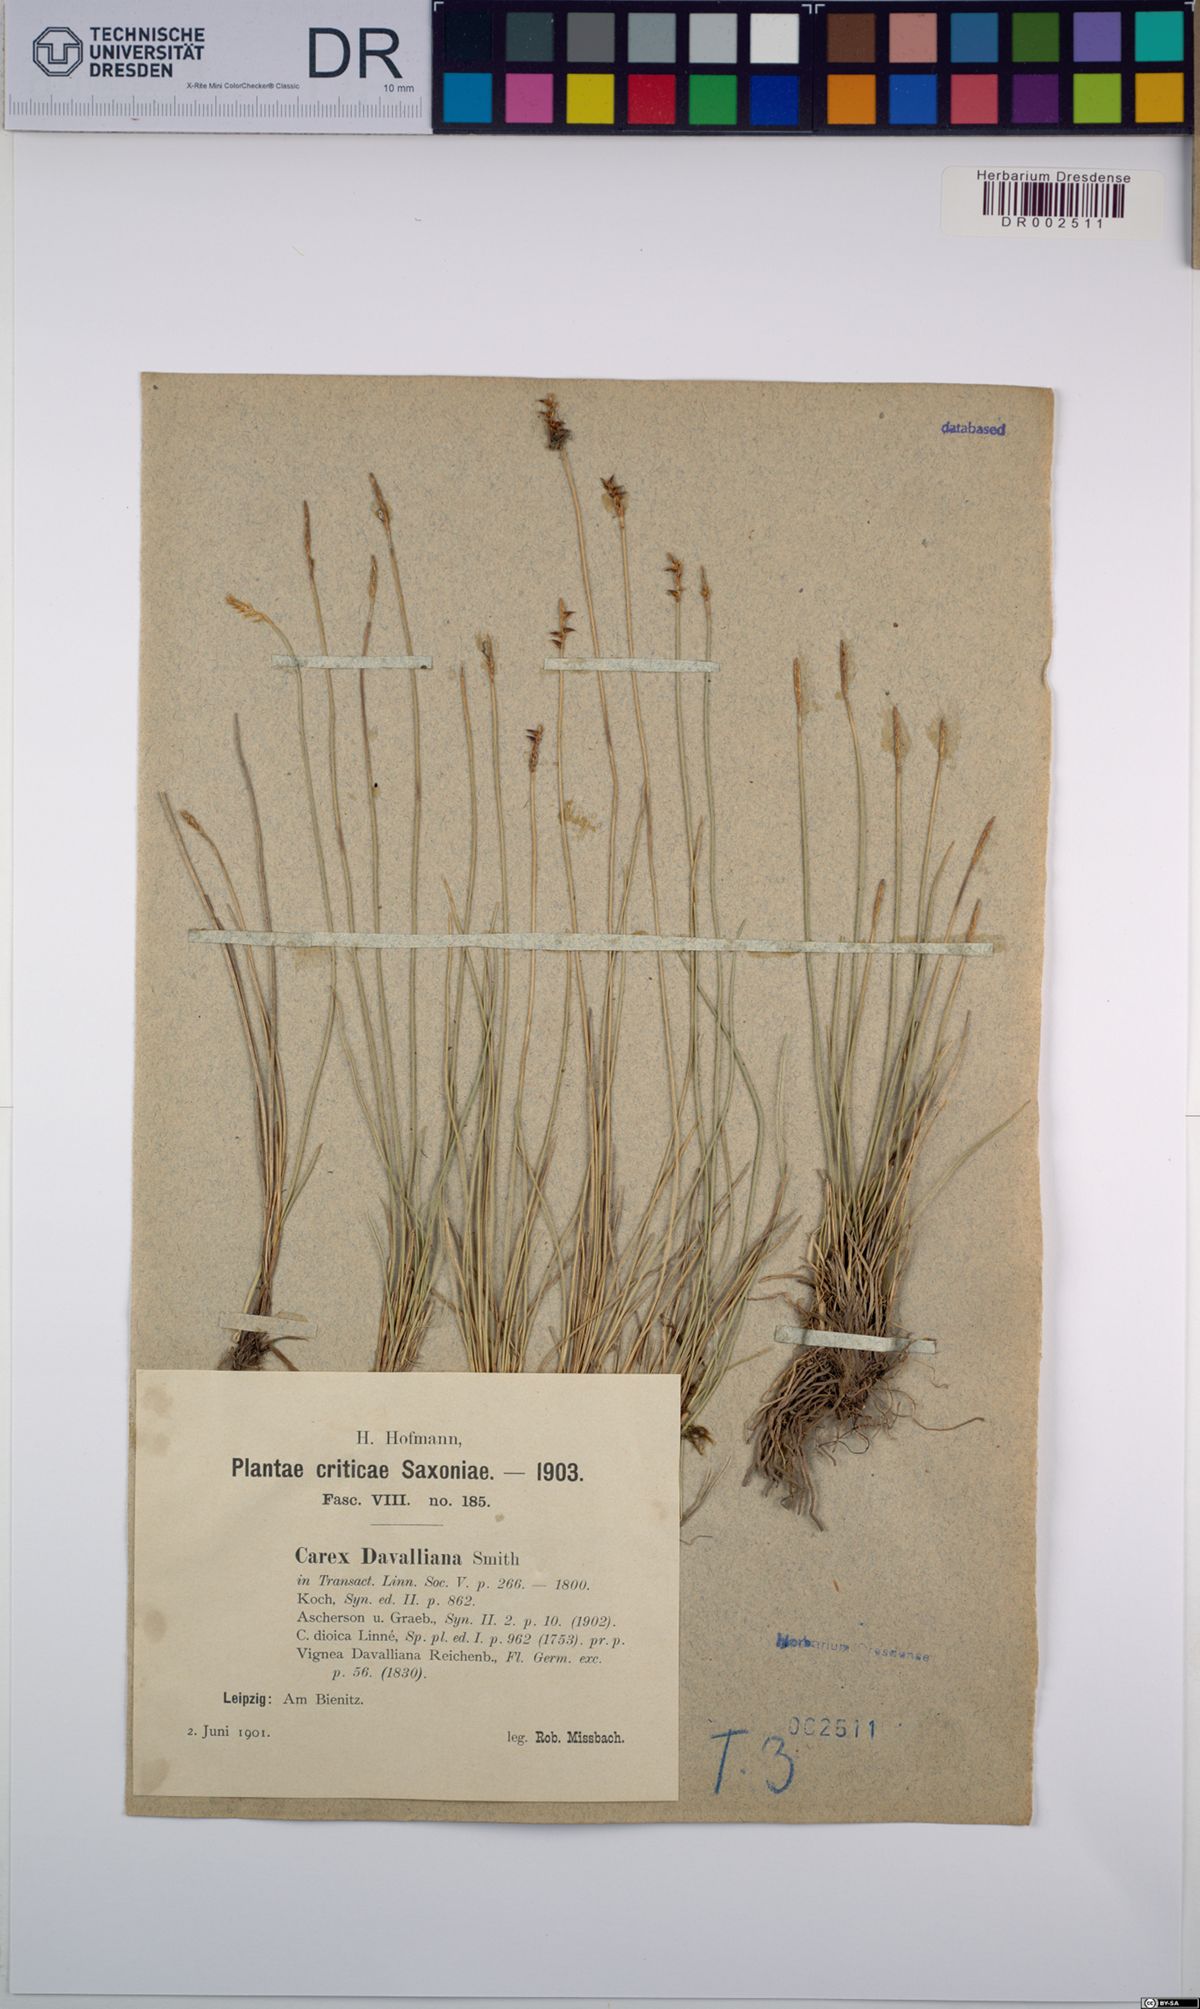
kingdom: Plantae
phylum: Tracheophyta
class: Liliopsida
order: Poales
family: Cyperaceae
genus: Carex
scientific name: Carex davalliana
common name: Davall's sedge
